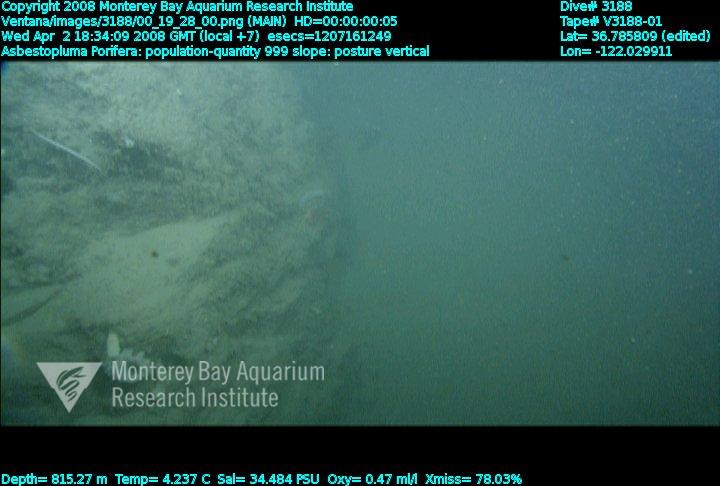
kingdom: Animalia
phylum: Porifera
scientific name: Porifera
